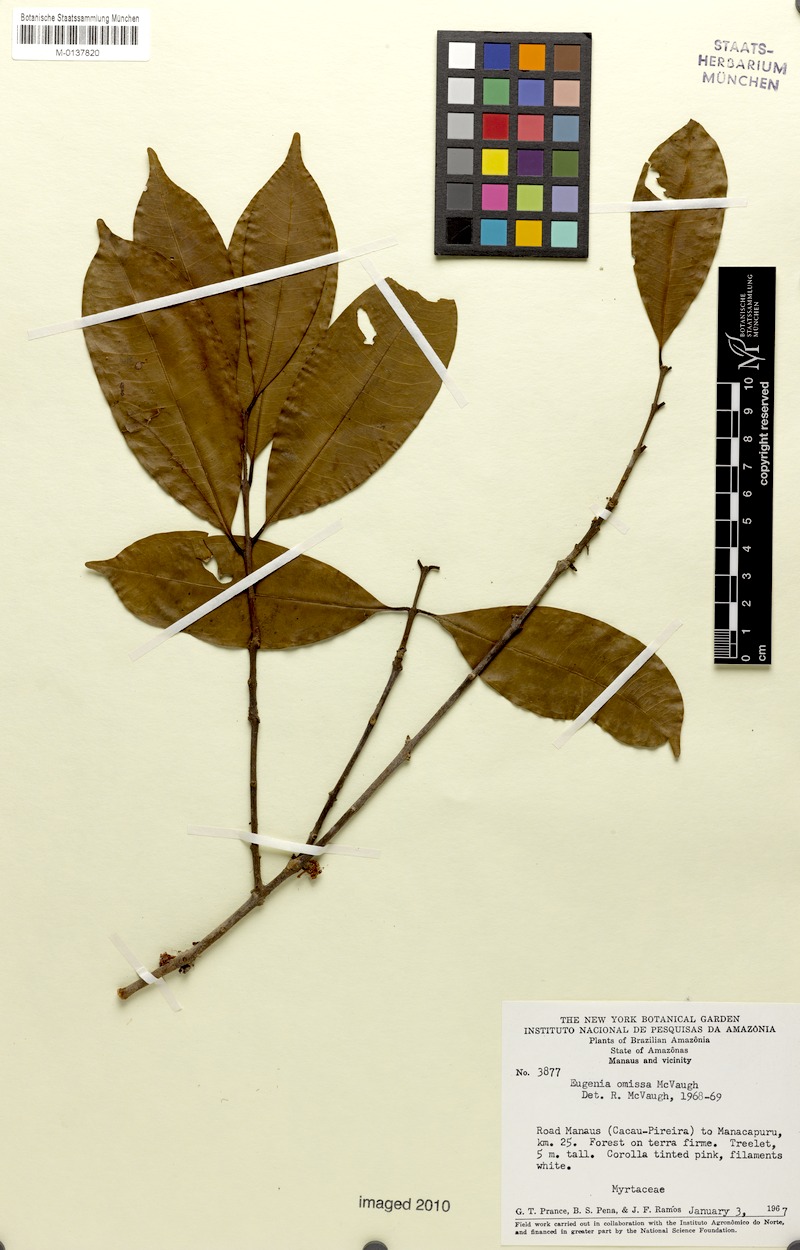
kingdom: Plantae
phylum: Tracheophyta
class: Magnoliopsida
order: Myrtales
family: Myrtaceae
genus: Eugenia
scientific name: Eugenia omissa
